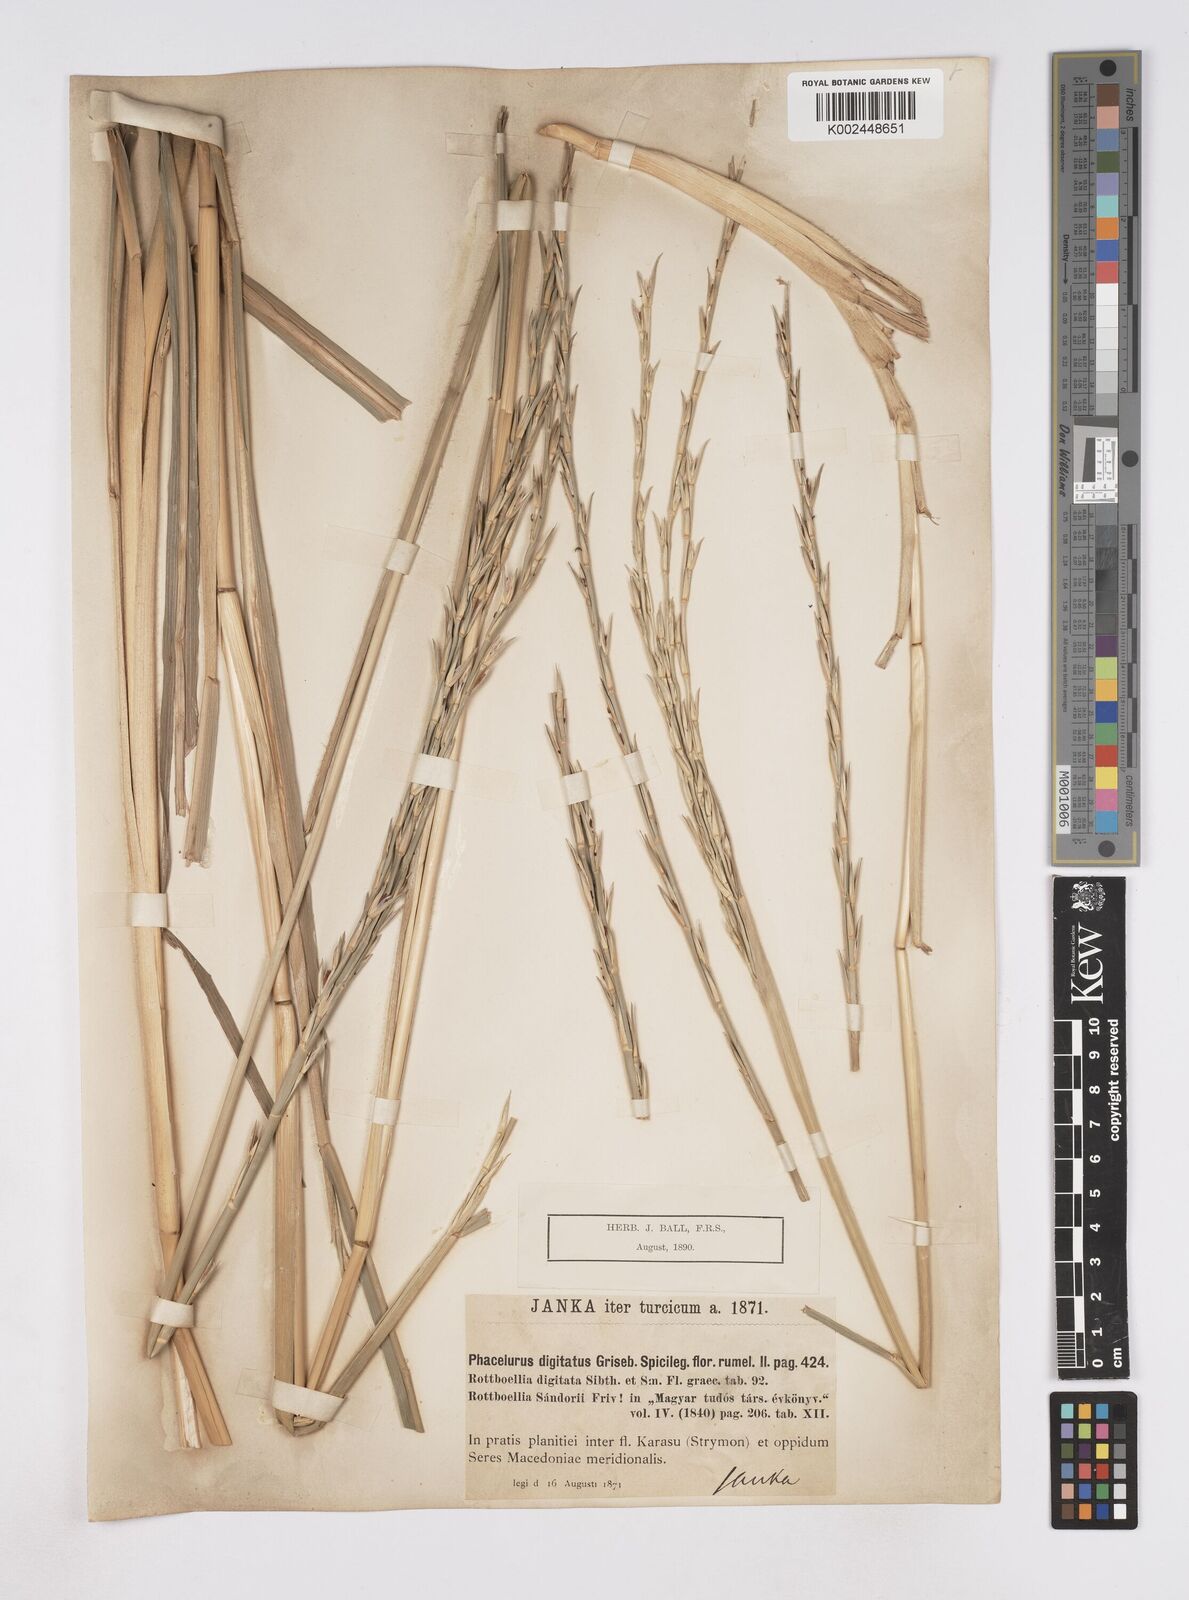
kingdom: Plantae
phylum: Tracheophyta
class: Liliopsida
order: Poales
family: Poaceae
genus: Phacelurus
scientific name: Phacelurus digitatus
